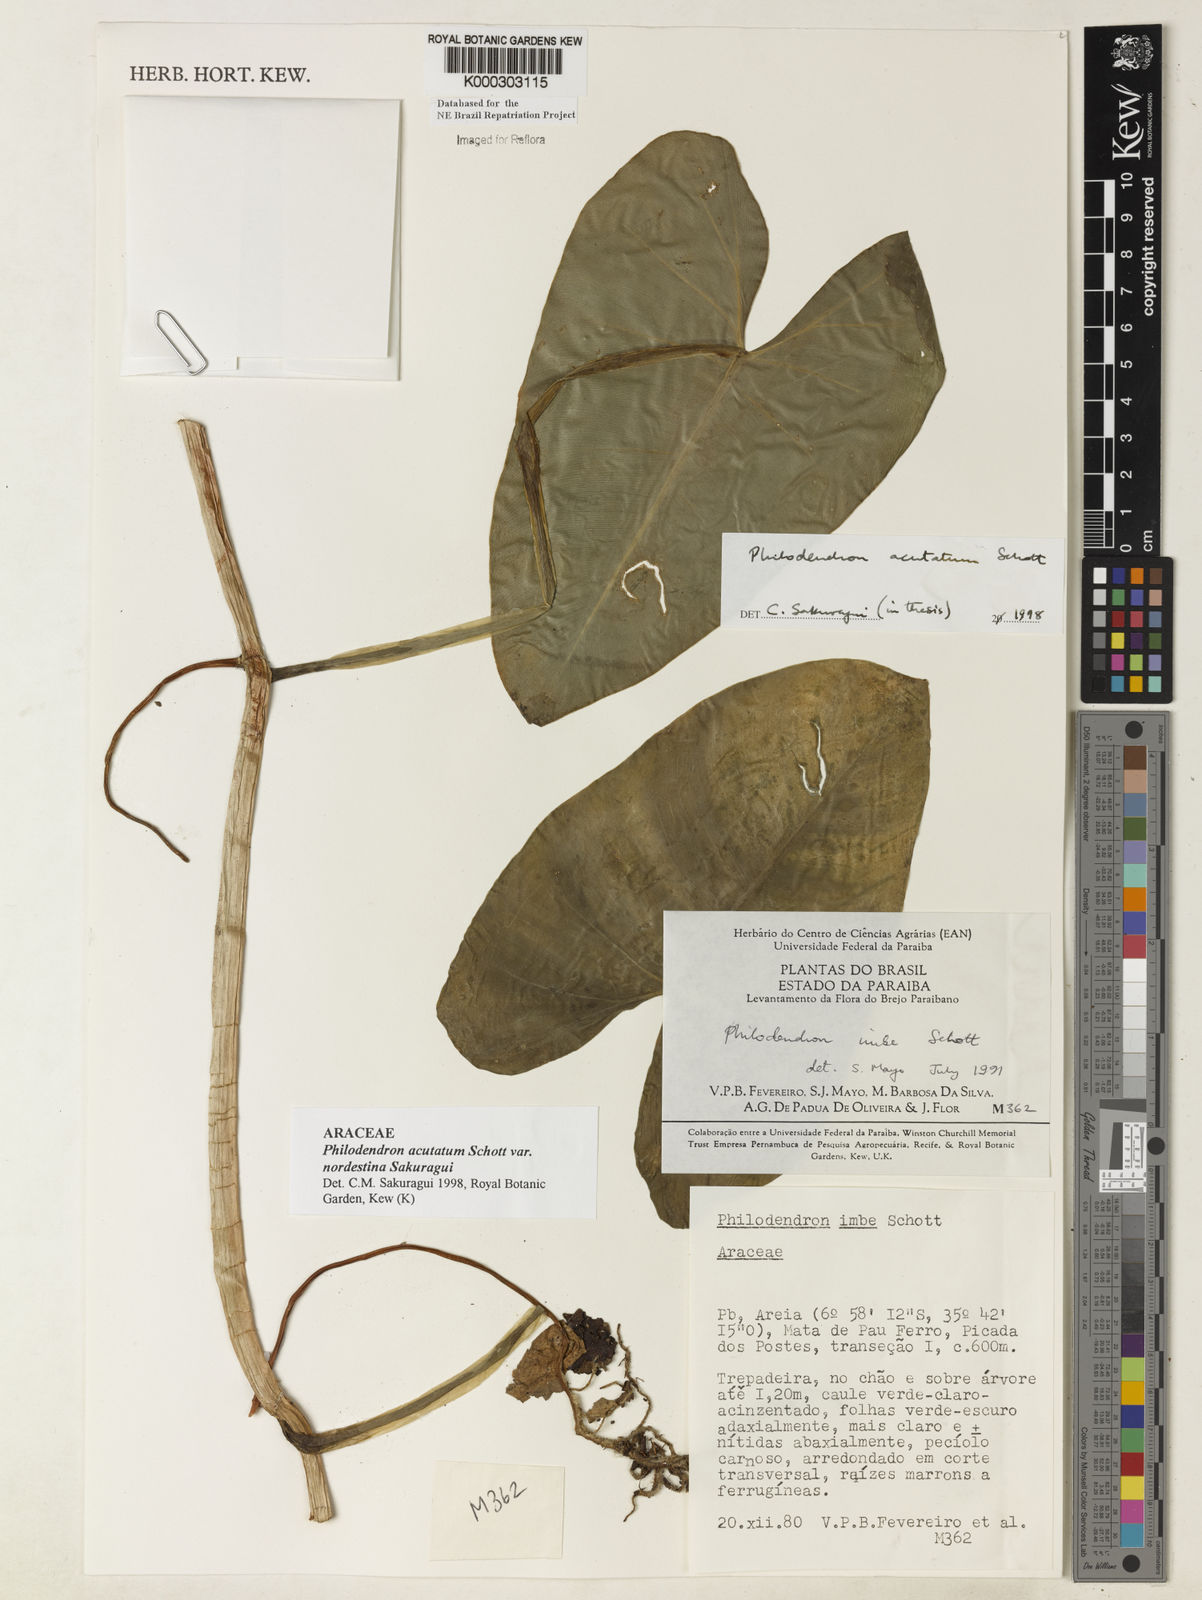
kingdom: Plantae
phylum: Tracheophyta
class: Liliopsida
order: Alismatales
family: Araceae
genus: Philodendron
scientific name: Philodendron quinquenervium
